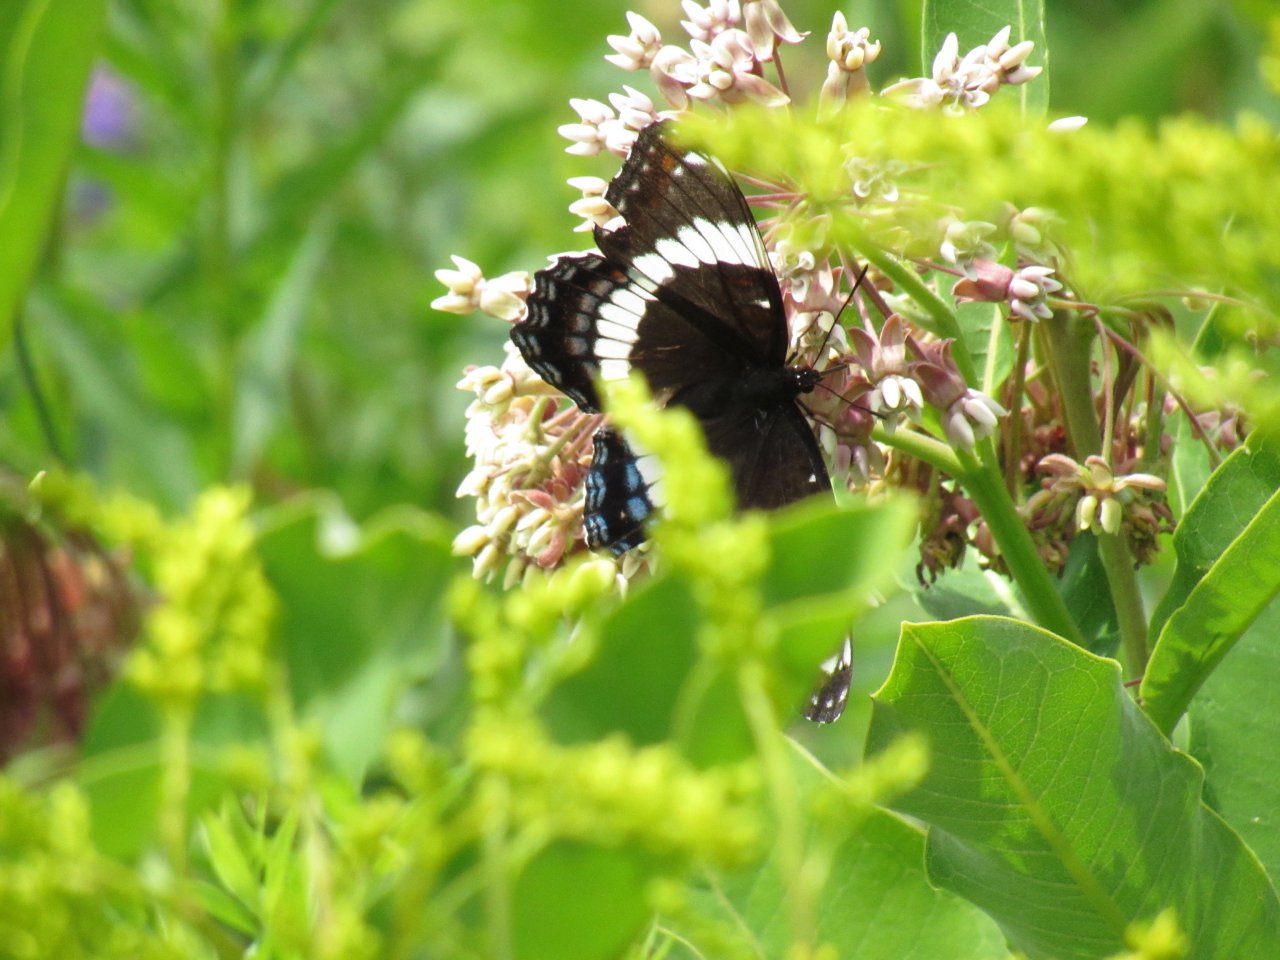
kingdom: Animalia
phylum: Arthropoda
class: Insecta
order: Lepidoptera
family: Nymphalidae
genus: Limenitis
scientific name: Limenitis arthemis
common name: Red-spotted Admiral
